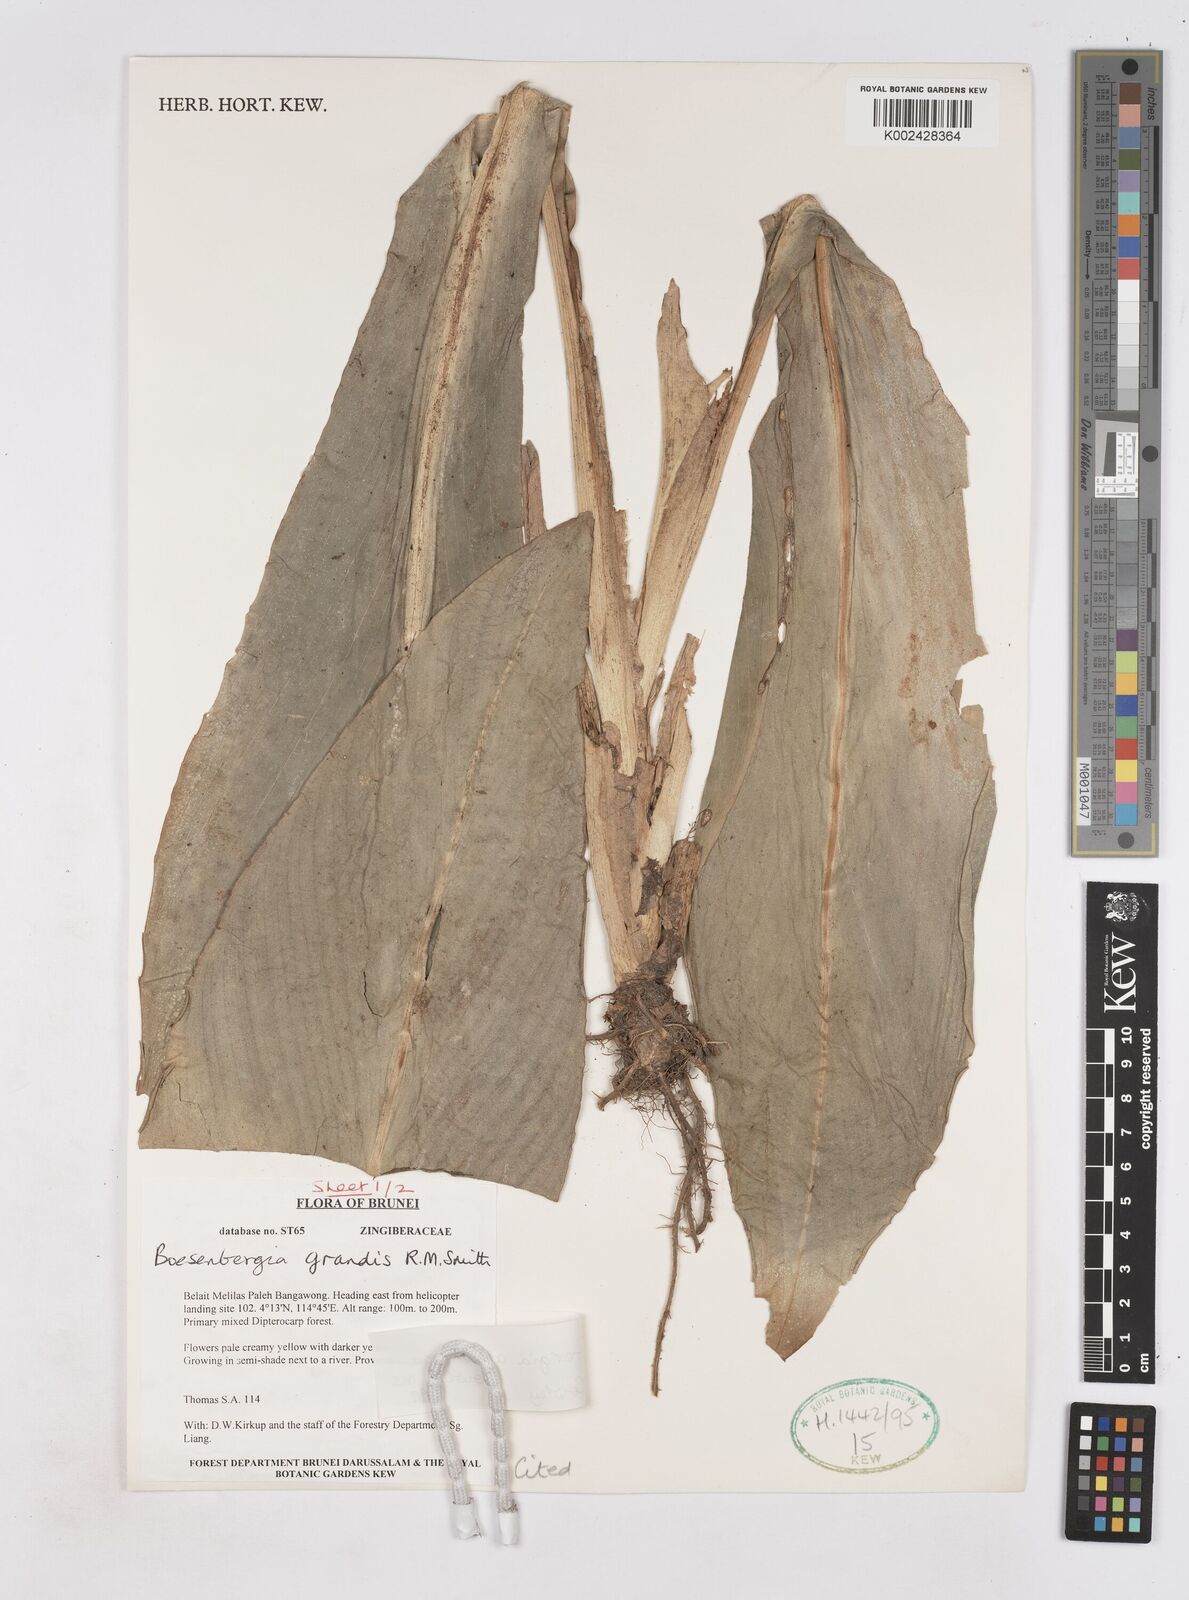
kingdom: Plantae
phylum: Tracheophyta
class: Liliopsida
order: Zingiberales
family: Zingiberaceae
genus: Boesenbergia
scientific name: Boesenbergia armeniaca
